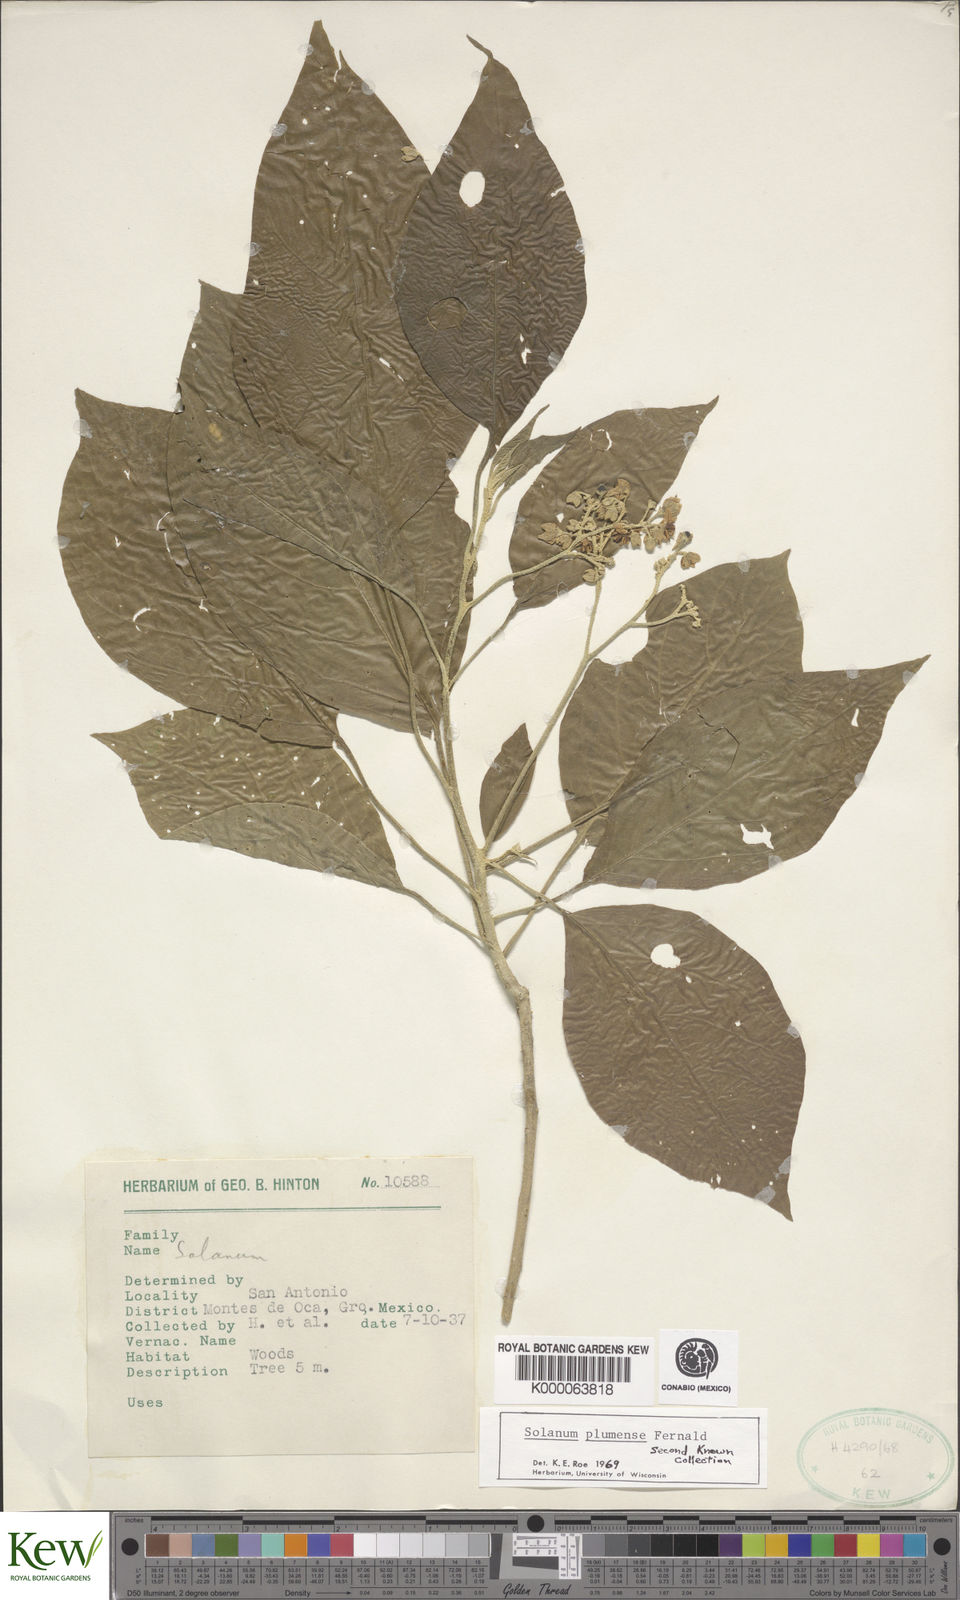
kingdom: Plantae
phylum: Tracheophyta
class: Magnoliopsida
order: Solanales
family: Solanaceae
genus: Solanum
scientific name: Solanum plumense
